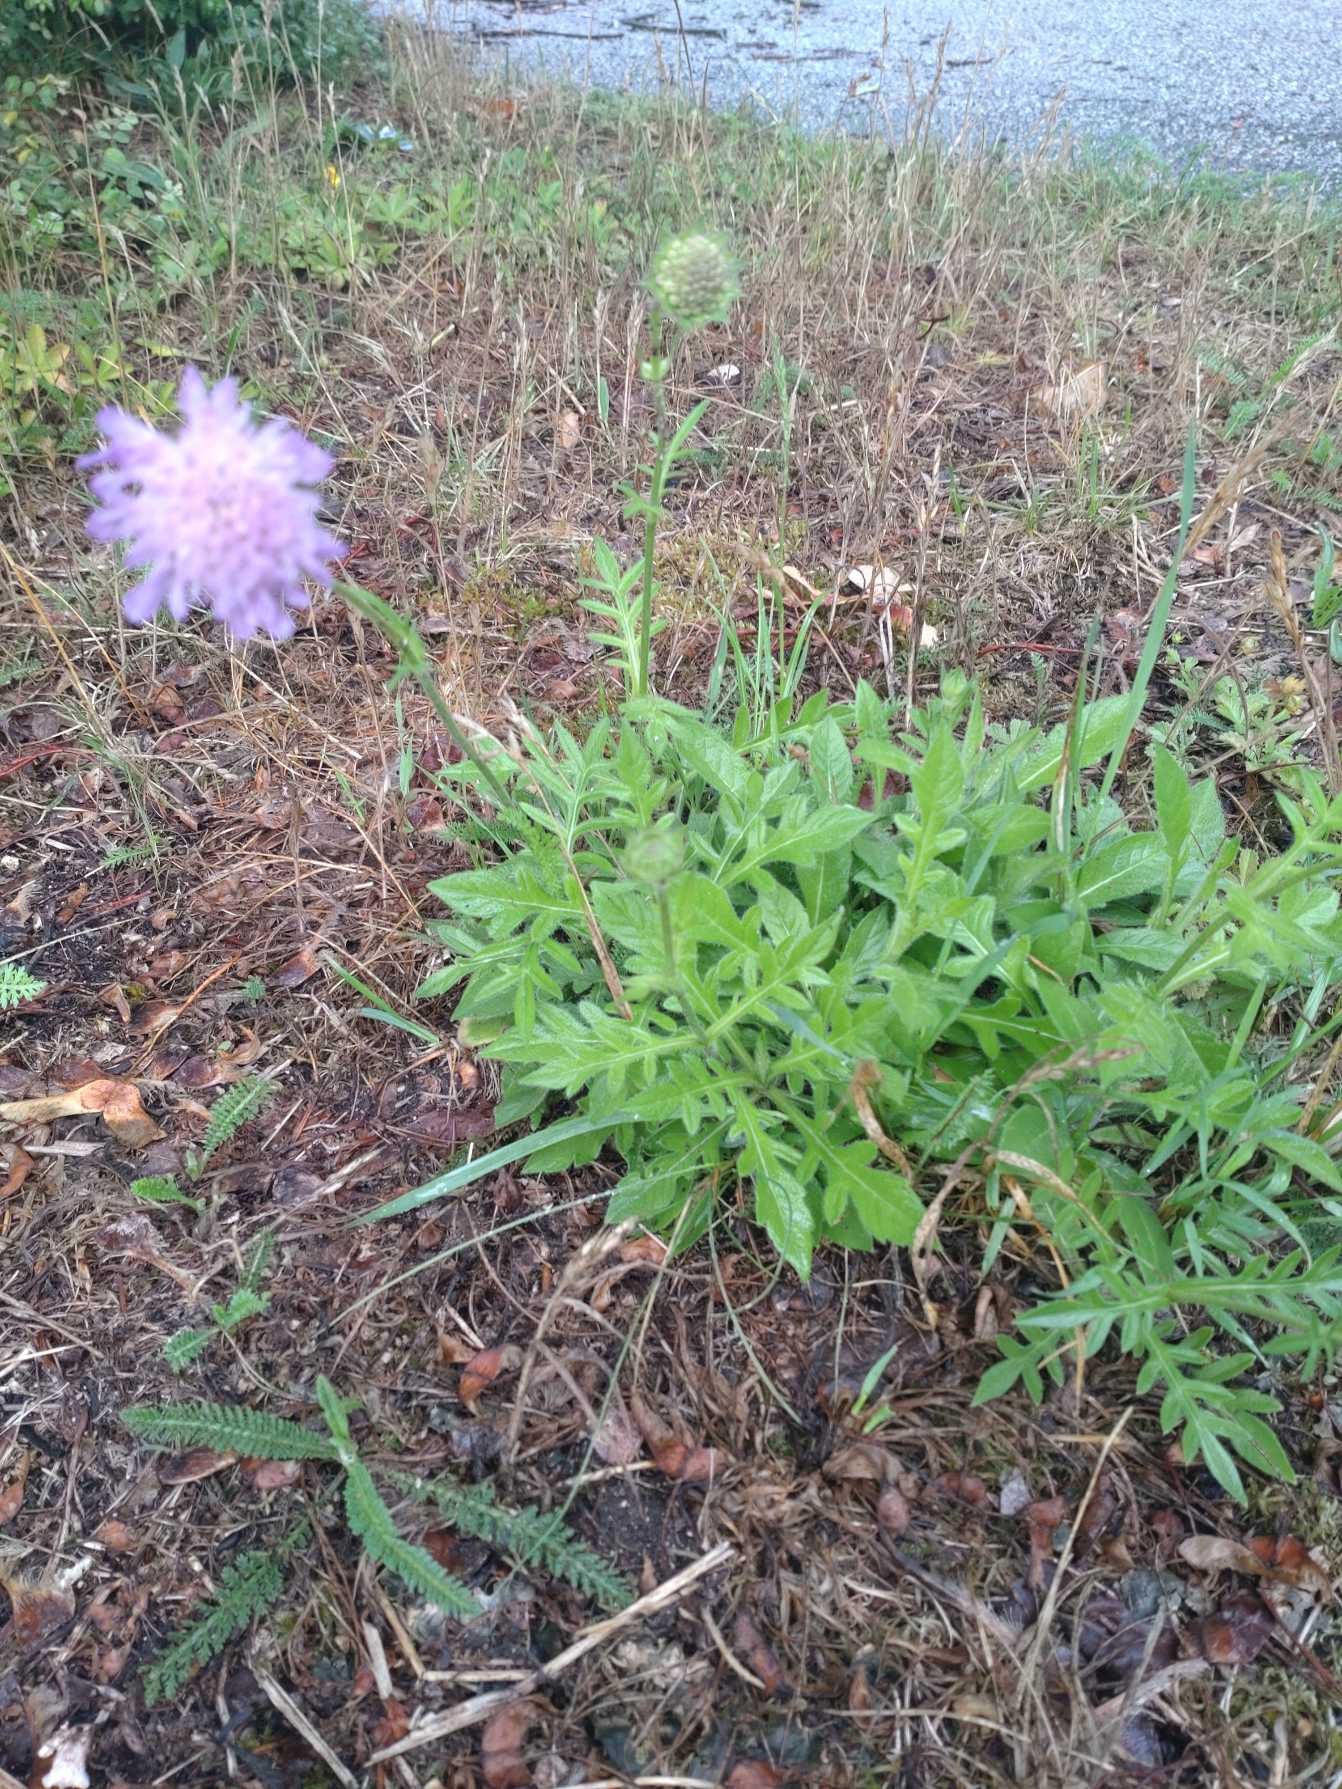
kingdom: Plantae
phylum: Tracheophyta
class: Magnoliopsida
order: Dipsacales
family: Caprifoliaceae
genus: Knautia
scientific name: Knautia arvensis
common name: Blåhat
